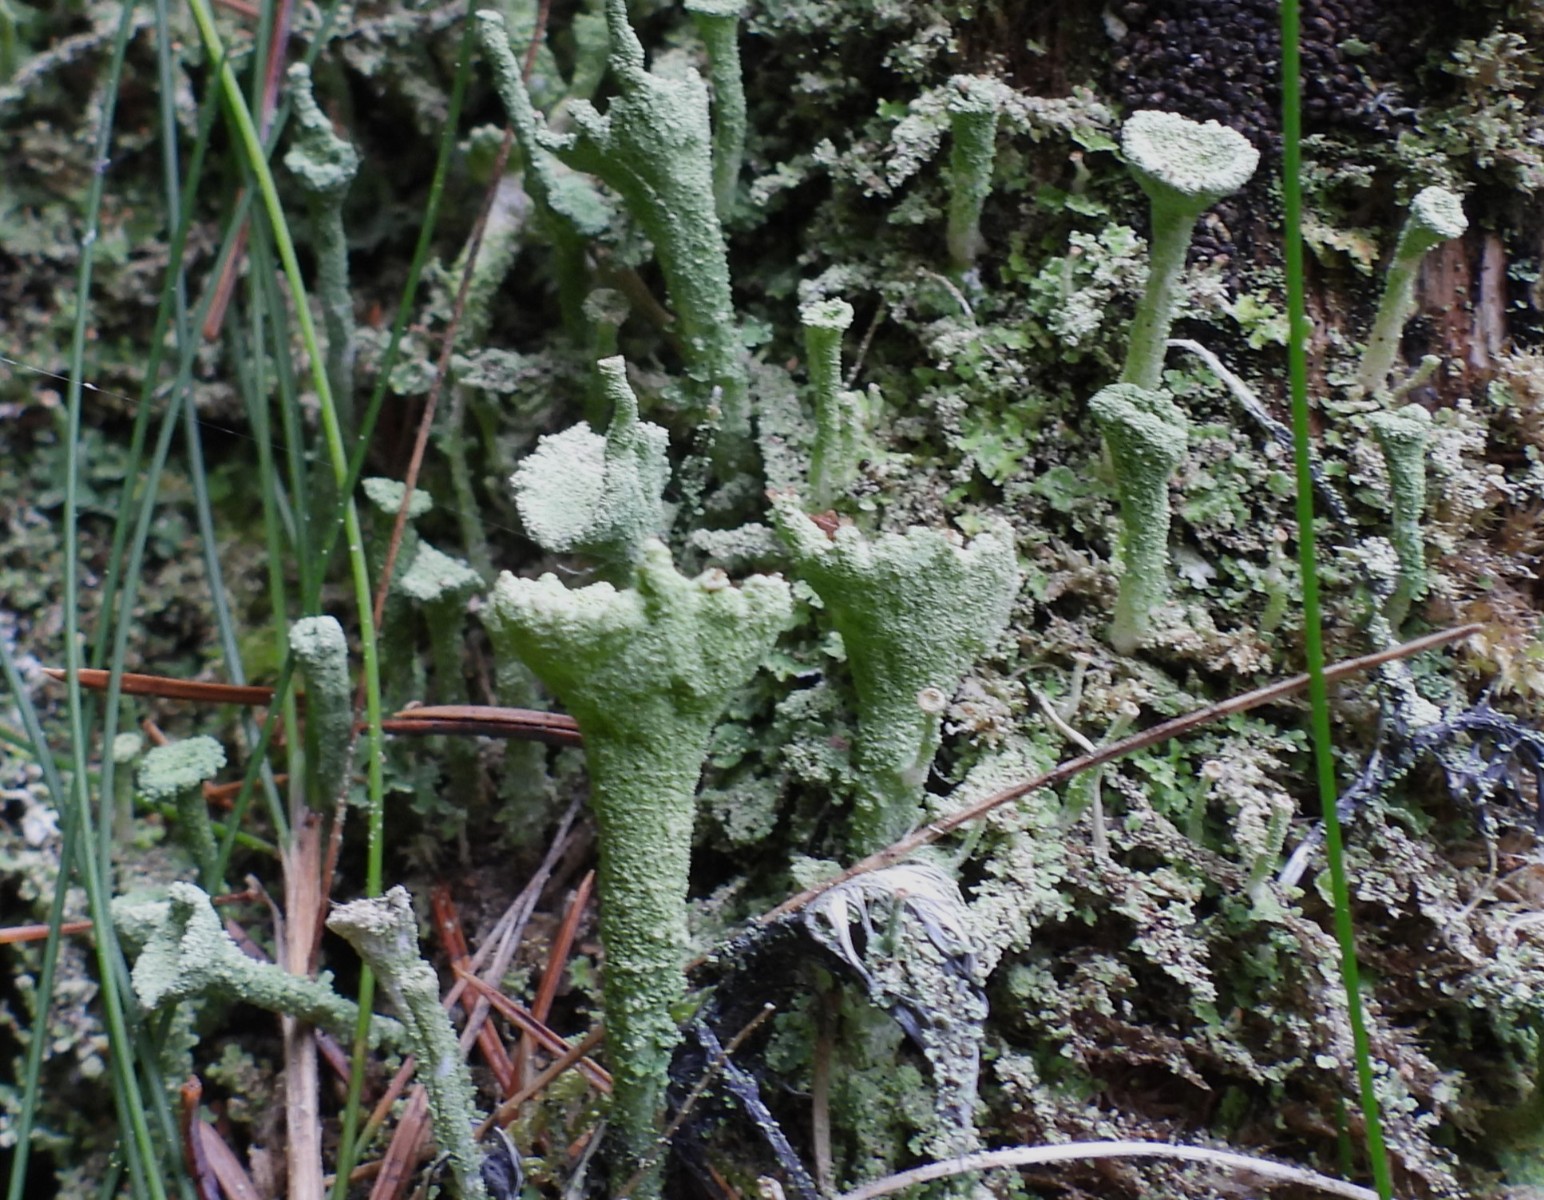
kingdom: Fungi
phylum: Ascomycota
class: Lecanoromycetes
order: Lecanorales
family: Cladoniaceae
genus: Cladonia
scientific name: Cladonia
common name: brungrøn bægerlav
